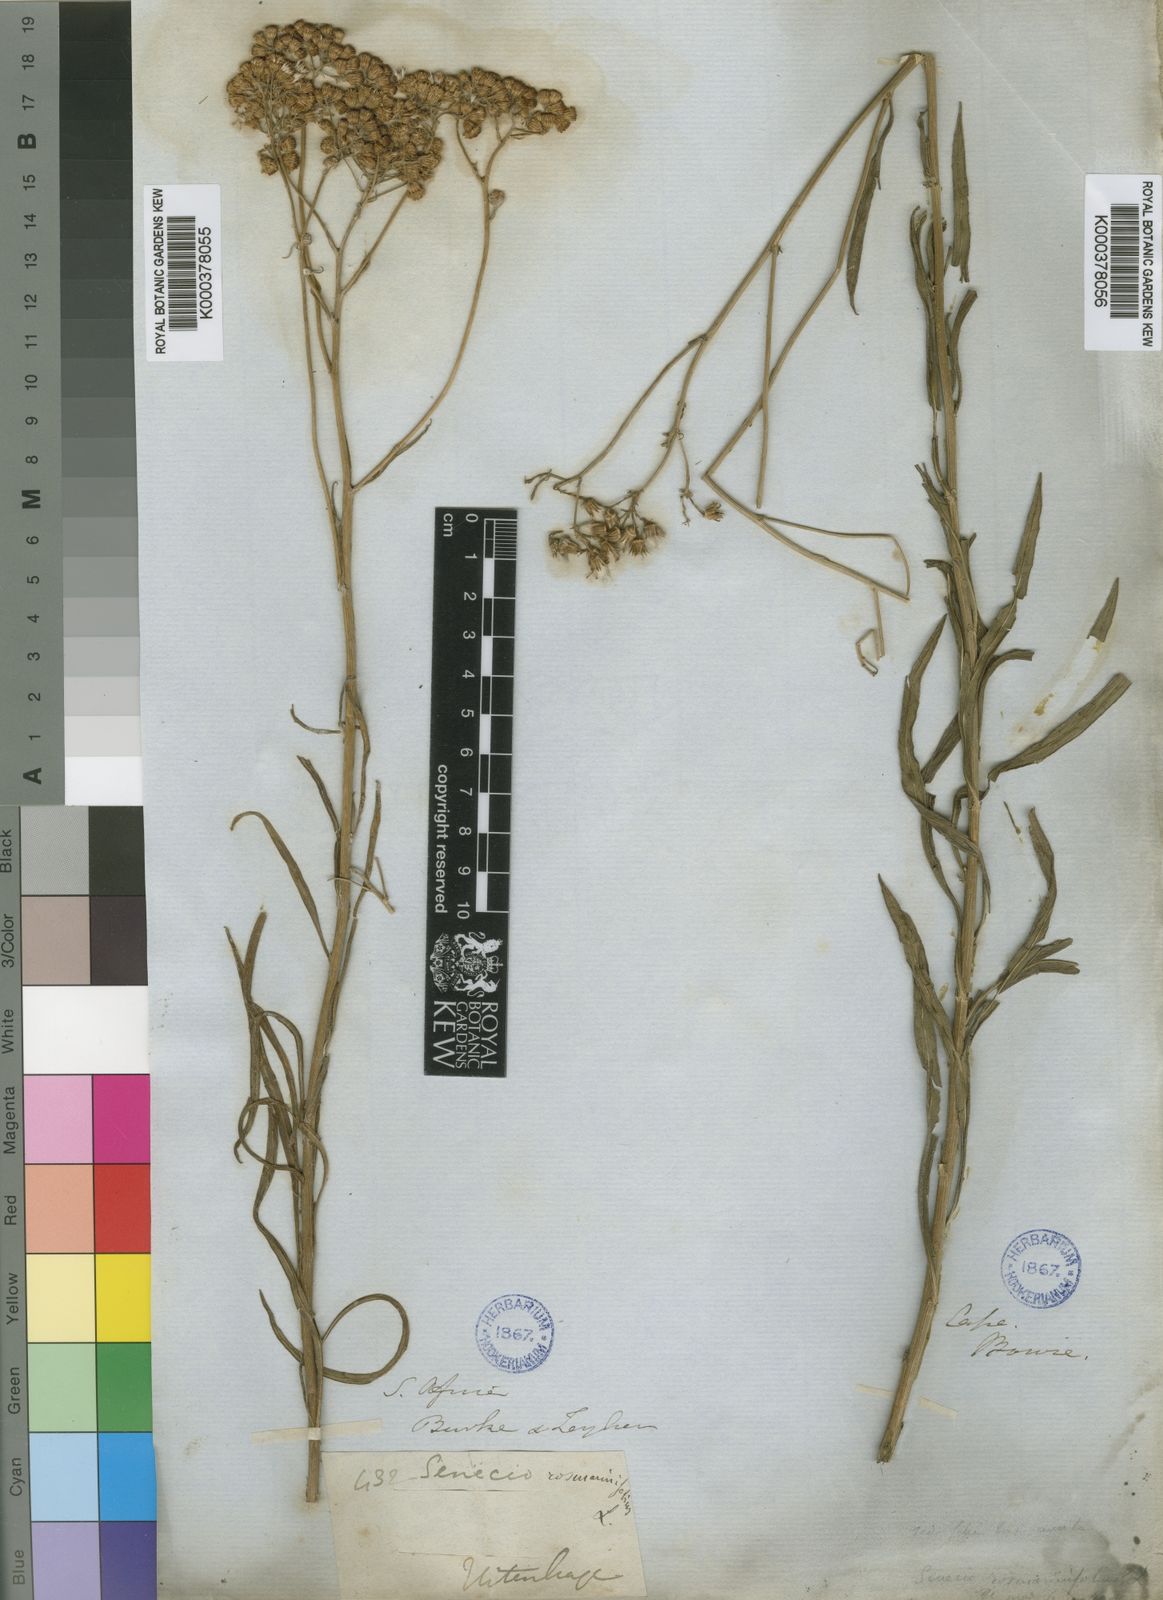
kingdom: Plantae
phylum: Tracheophyta
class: Magnoliopsida
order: Asterales
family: Asteraceae
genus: Senecio
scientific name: Senecio rosmarinifolius
